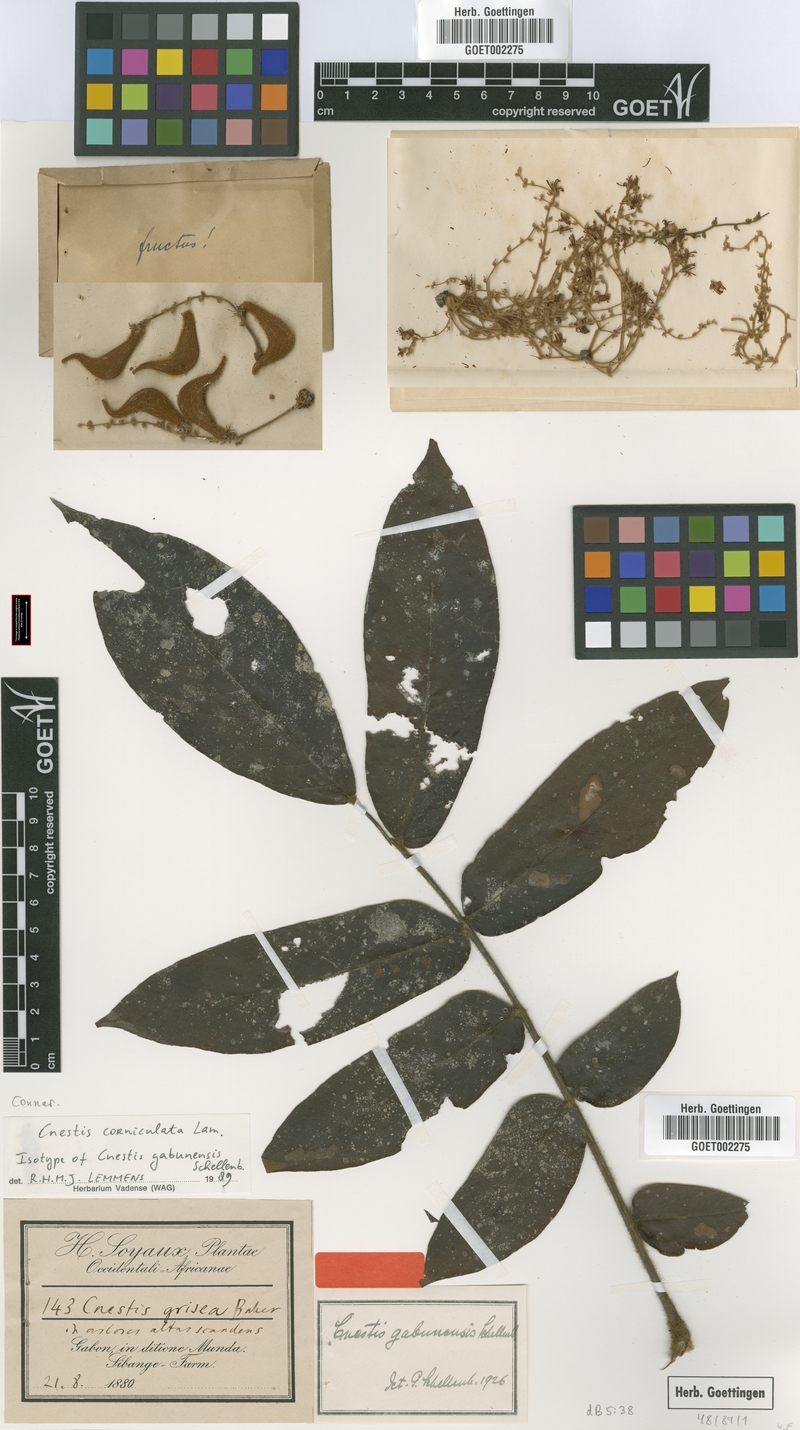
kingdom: Plantae
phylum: Tracheophyta
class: Magnoliopsida
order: Oxalidales
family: Connaraceae
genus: Cnestis
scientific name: Cnestis corniculata
